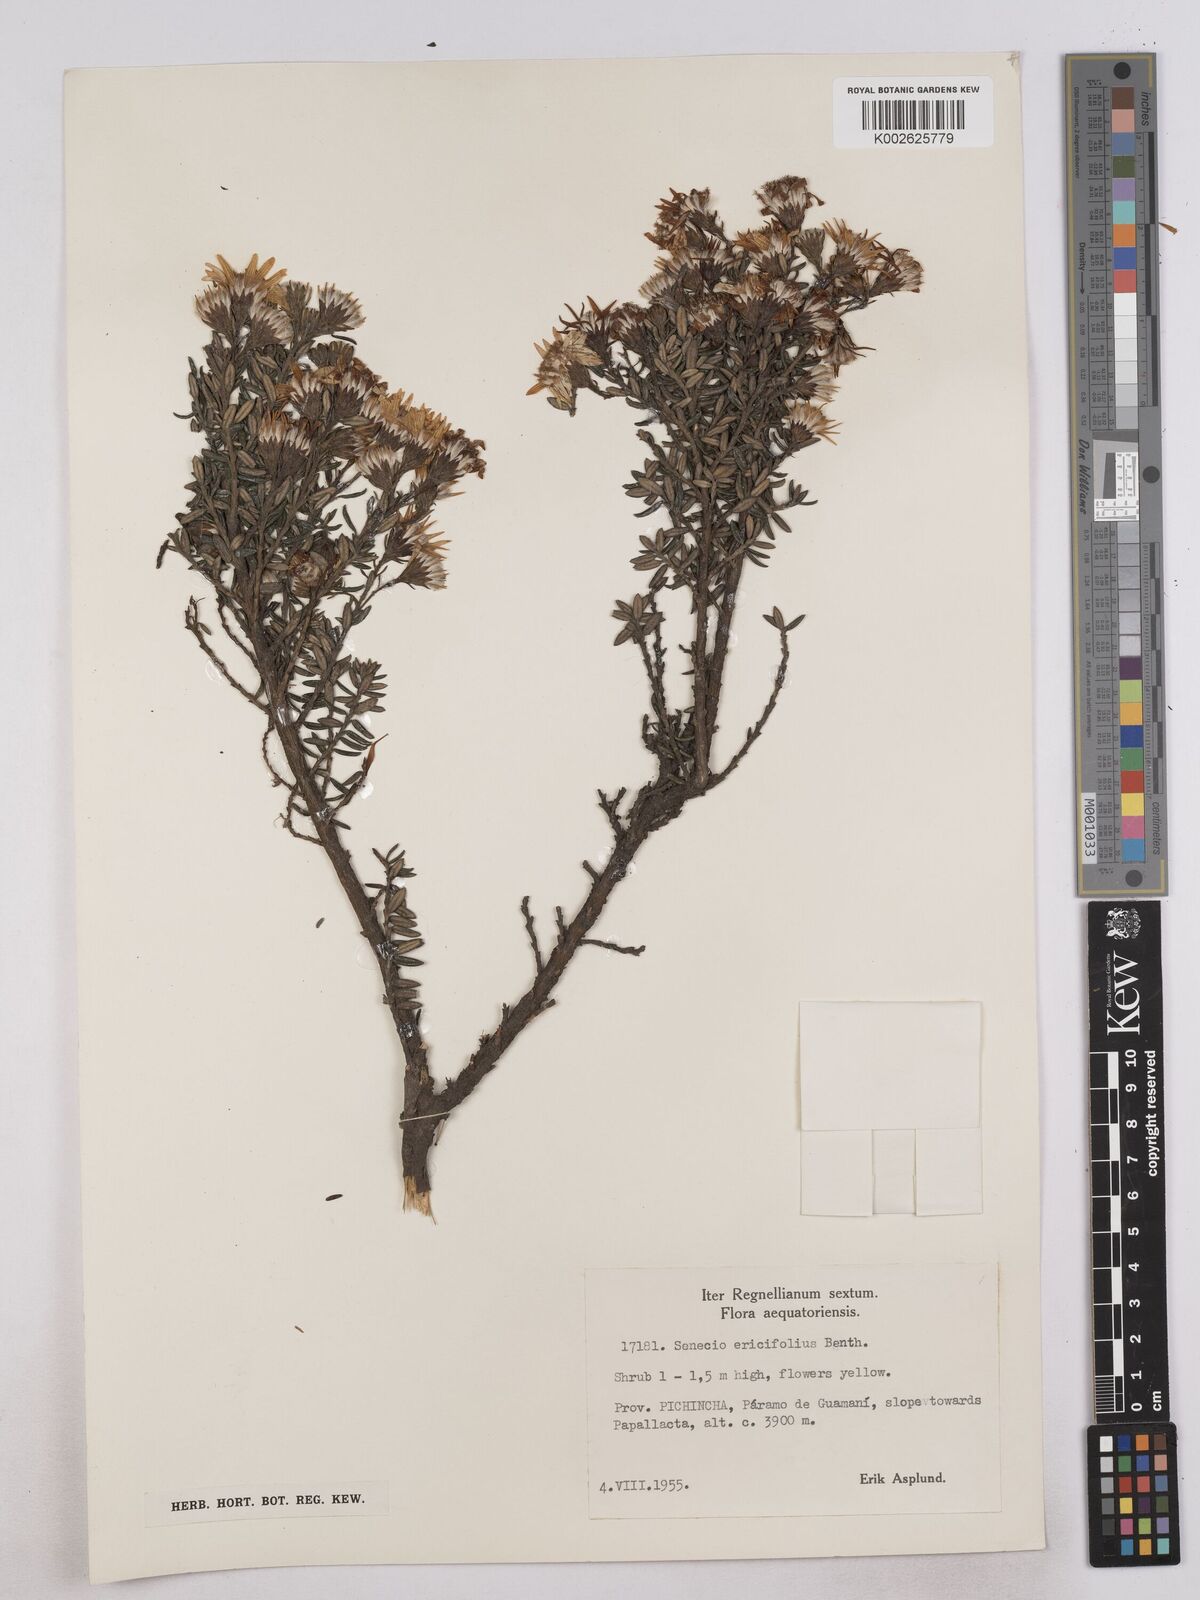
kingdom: Plantae
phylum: Tracheophyta
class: Magnoliopsida
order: Asterales
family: Asteraceae
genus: Monticalia
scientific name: Monticalia peruviana
